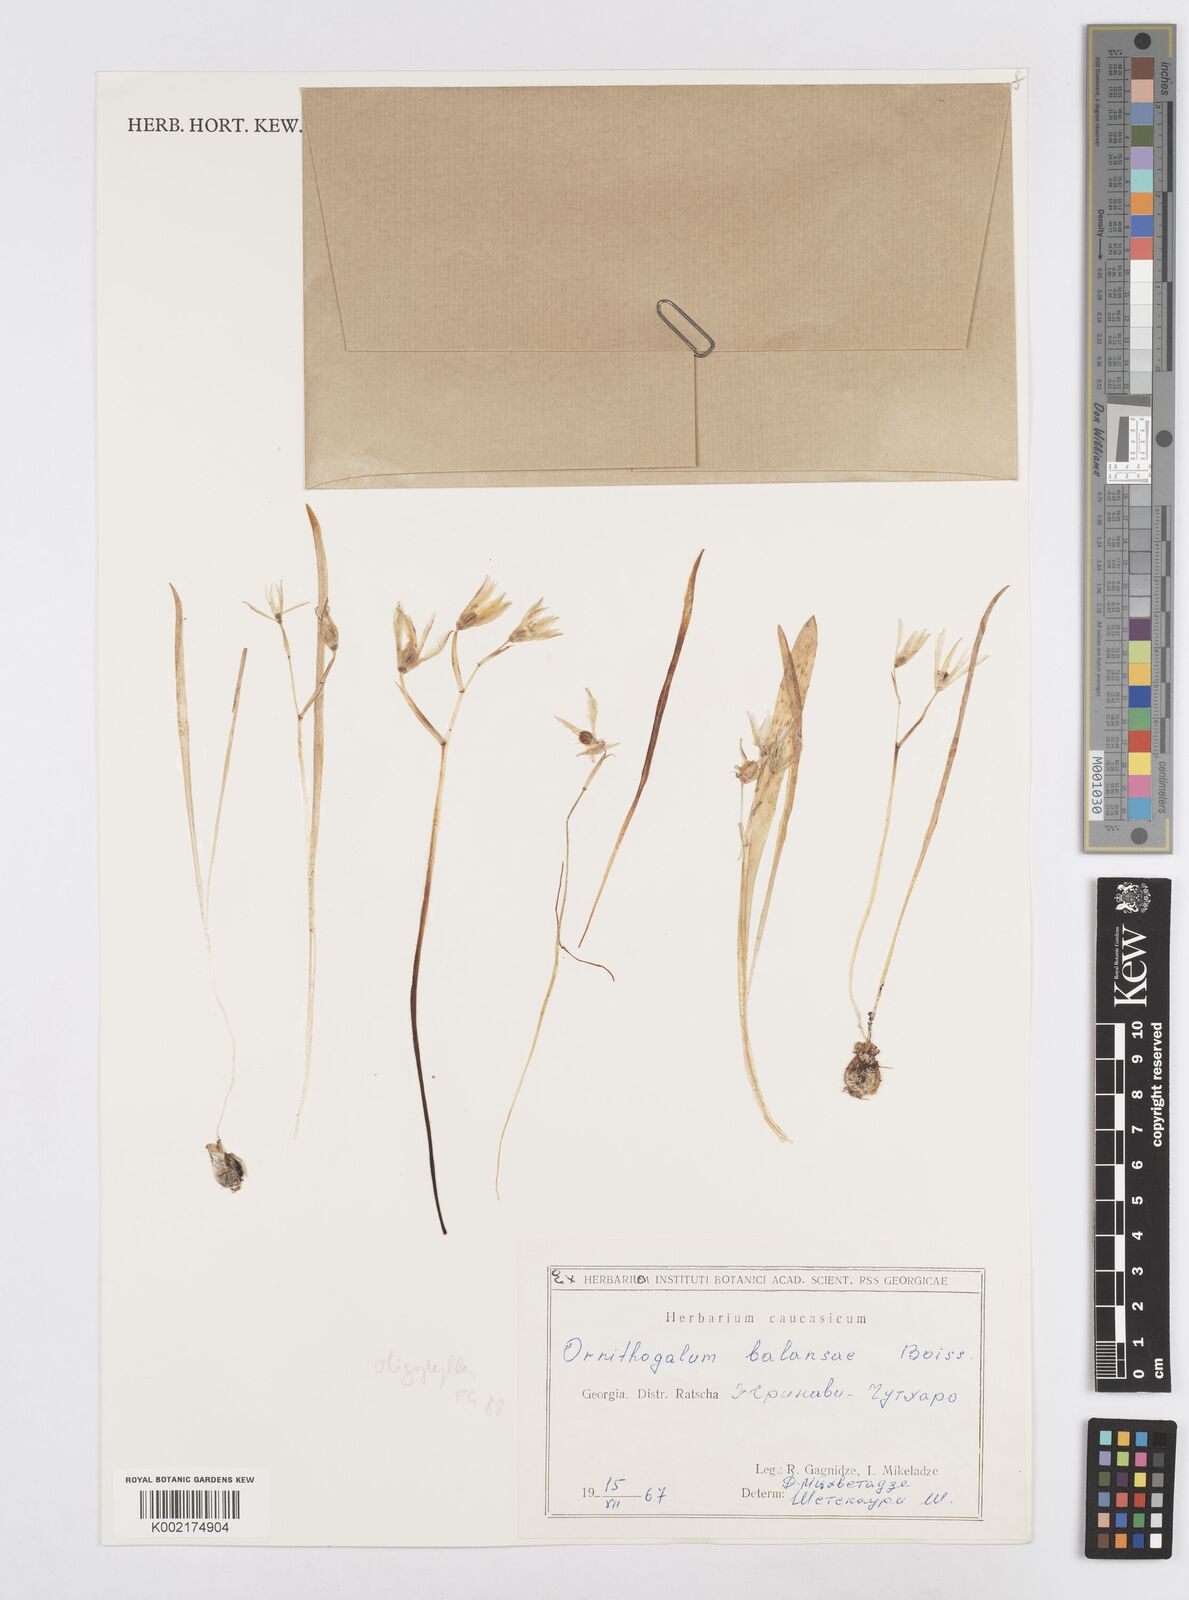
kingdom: Plantae
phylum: Tracheophyta
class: Liliopsida
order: Asparagales
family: Asparagaceae
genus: Ornithogalum
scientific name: Ornithogalum balansae
